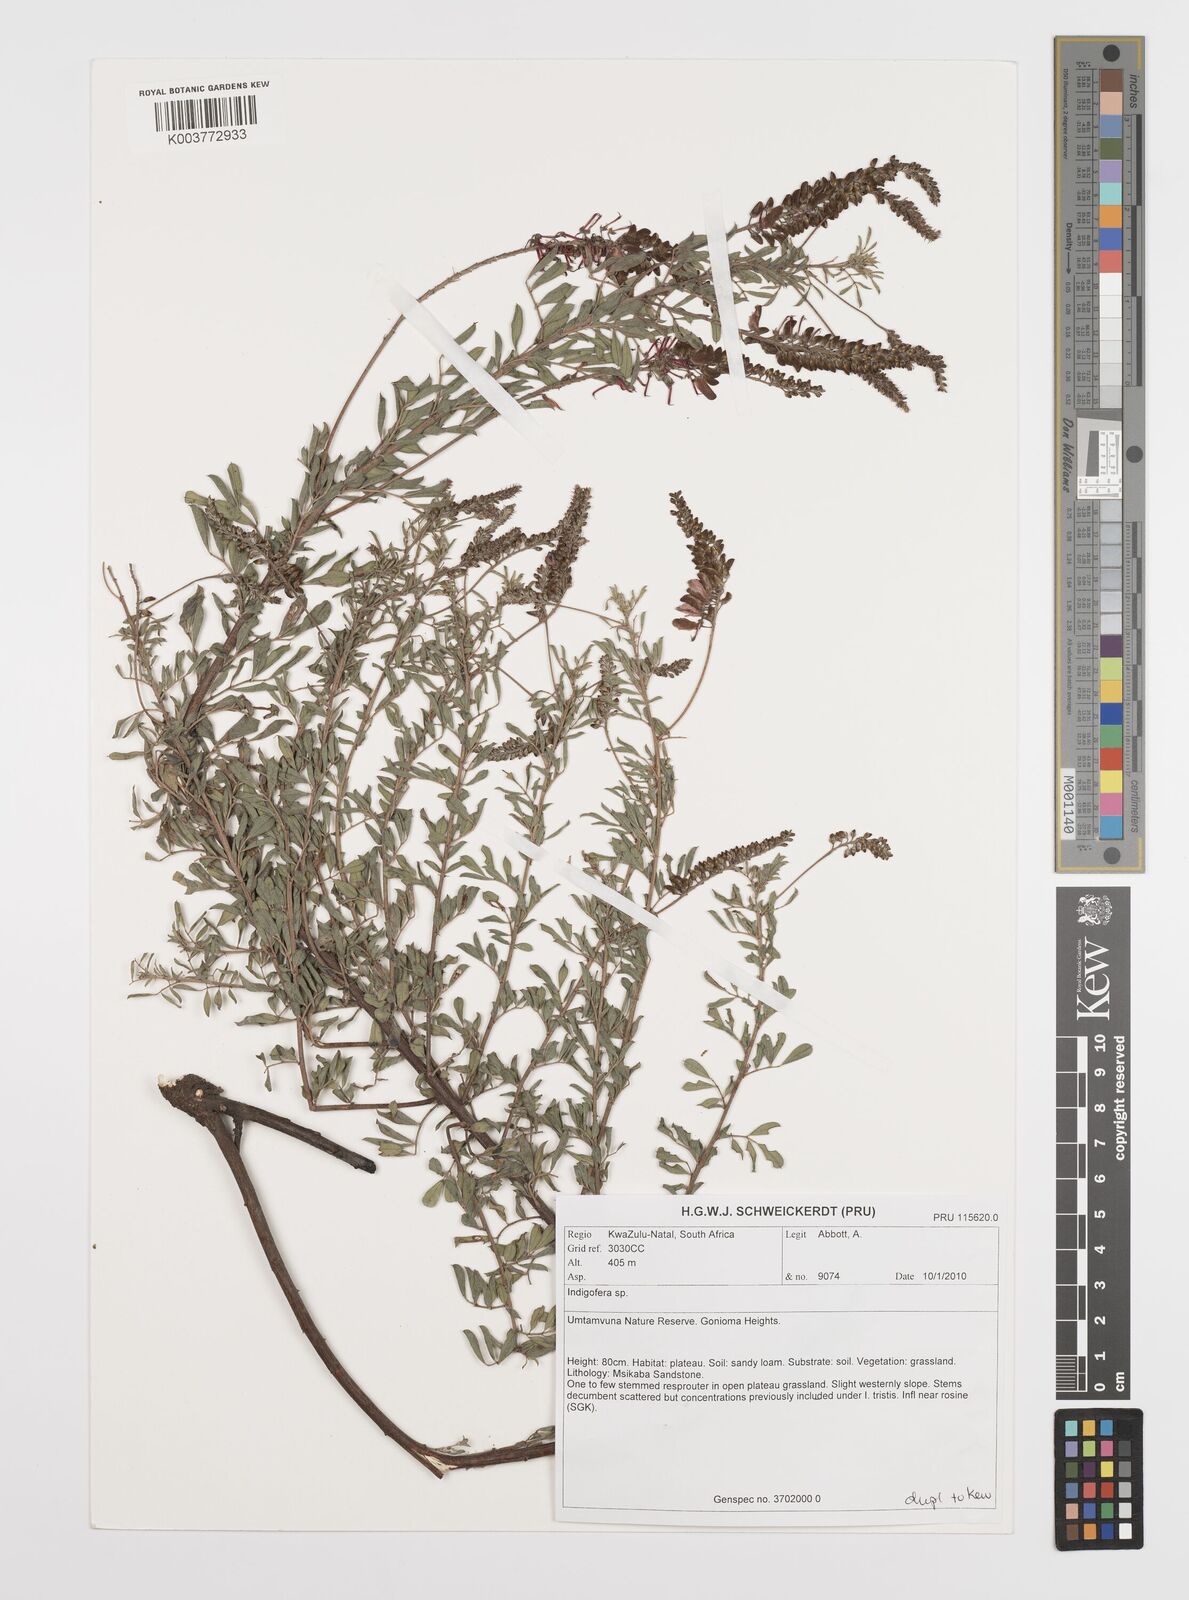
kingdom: Plantae
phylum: Tracheophyta
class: Magnoliopsida
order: Fabales
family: Fabaceae
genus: Indigofera
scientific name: Indigofera
